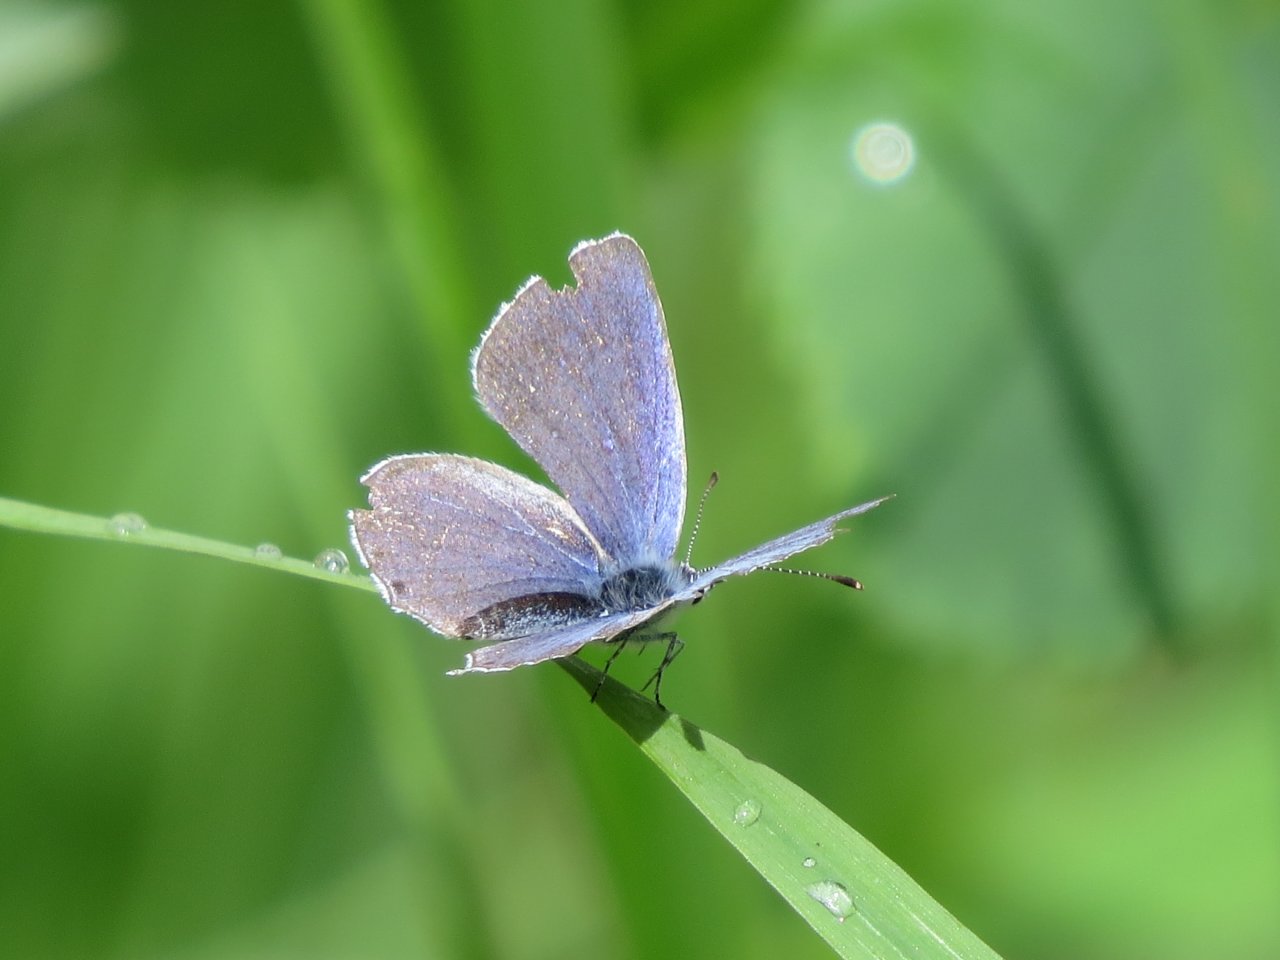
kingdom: Animalia
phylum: Arthropoda
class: Insecta
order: Lepidoptera
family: Lycaenidae
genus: Elkalyce
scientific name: Elkalyce amyntula
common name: Western Tailed-Blue
